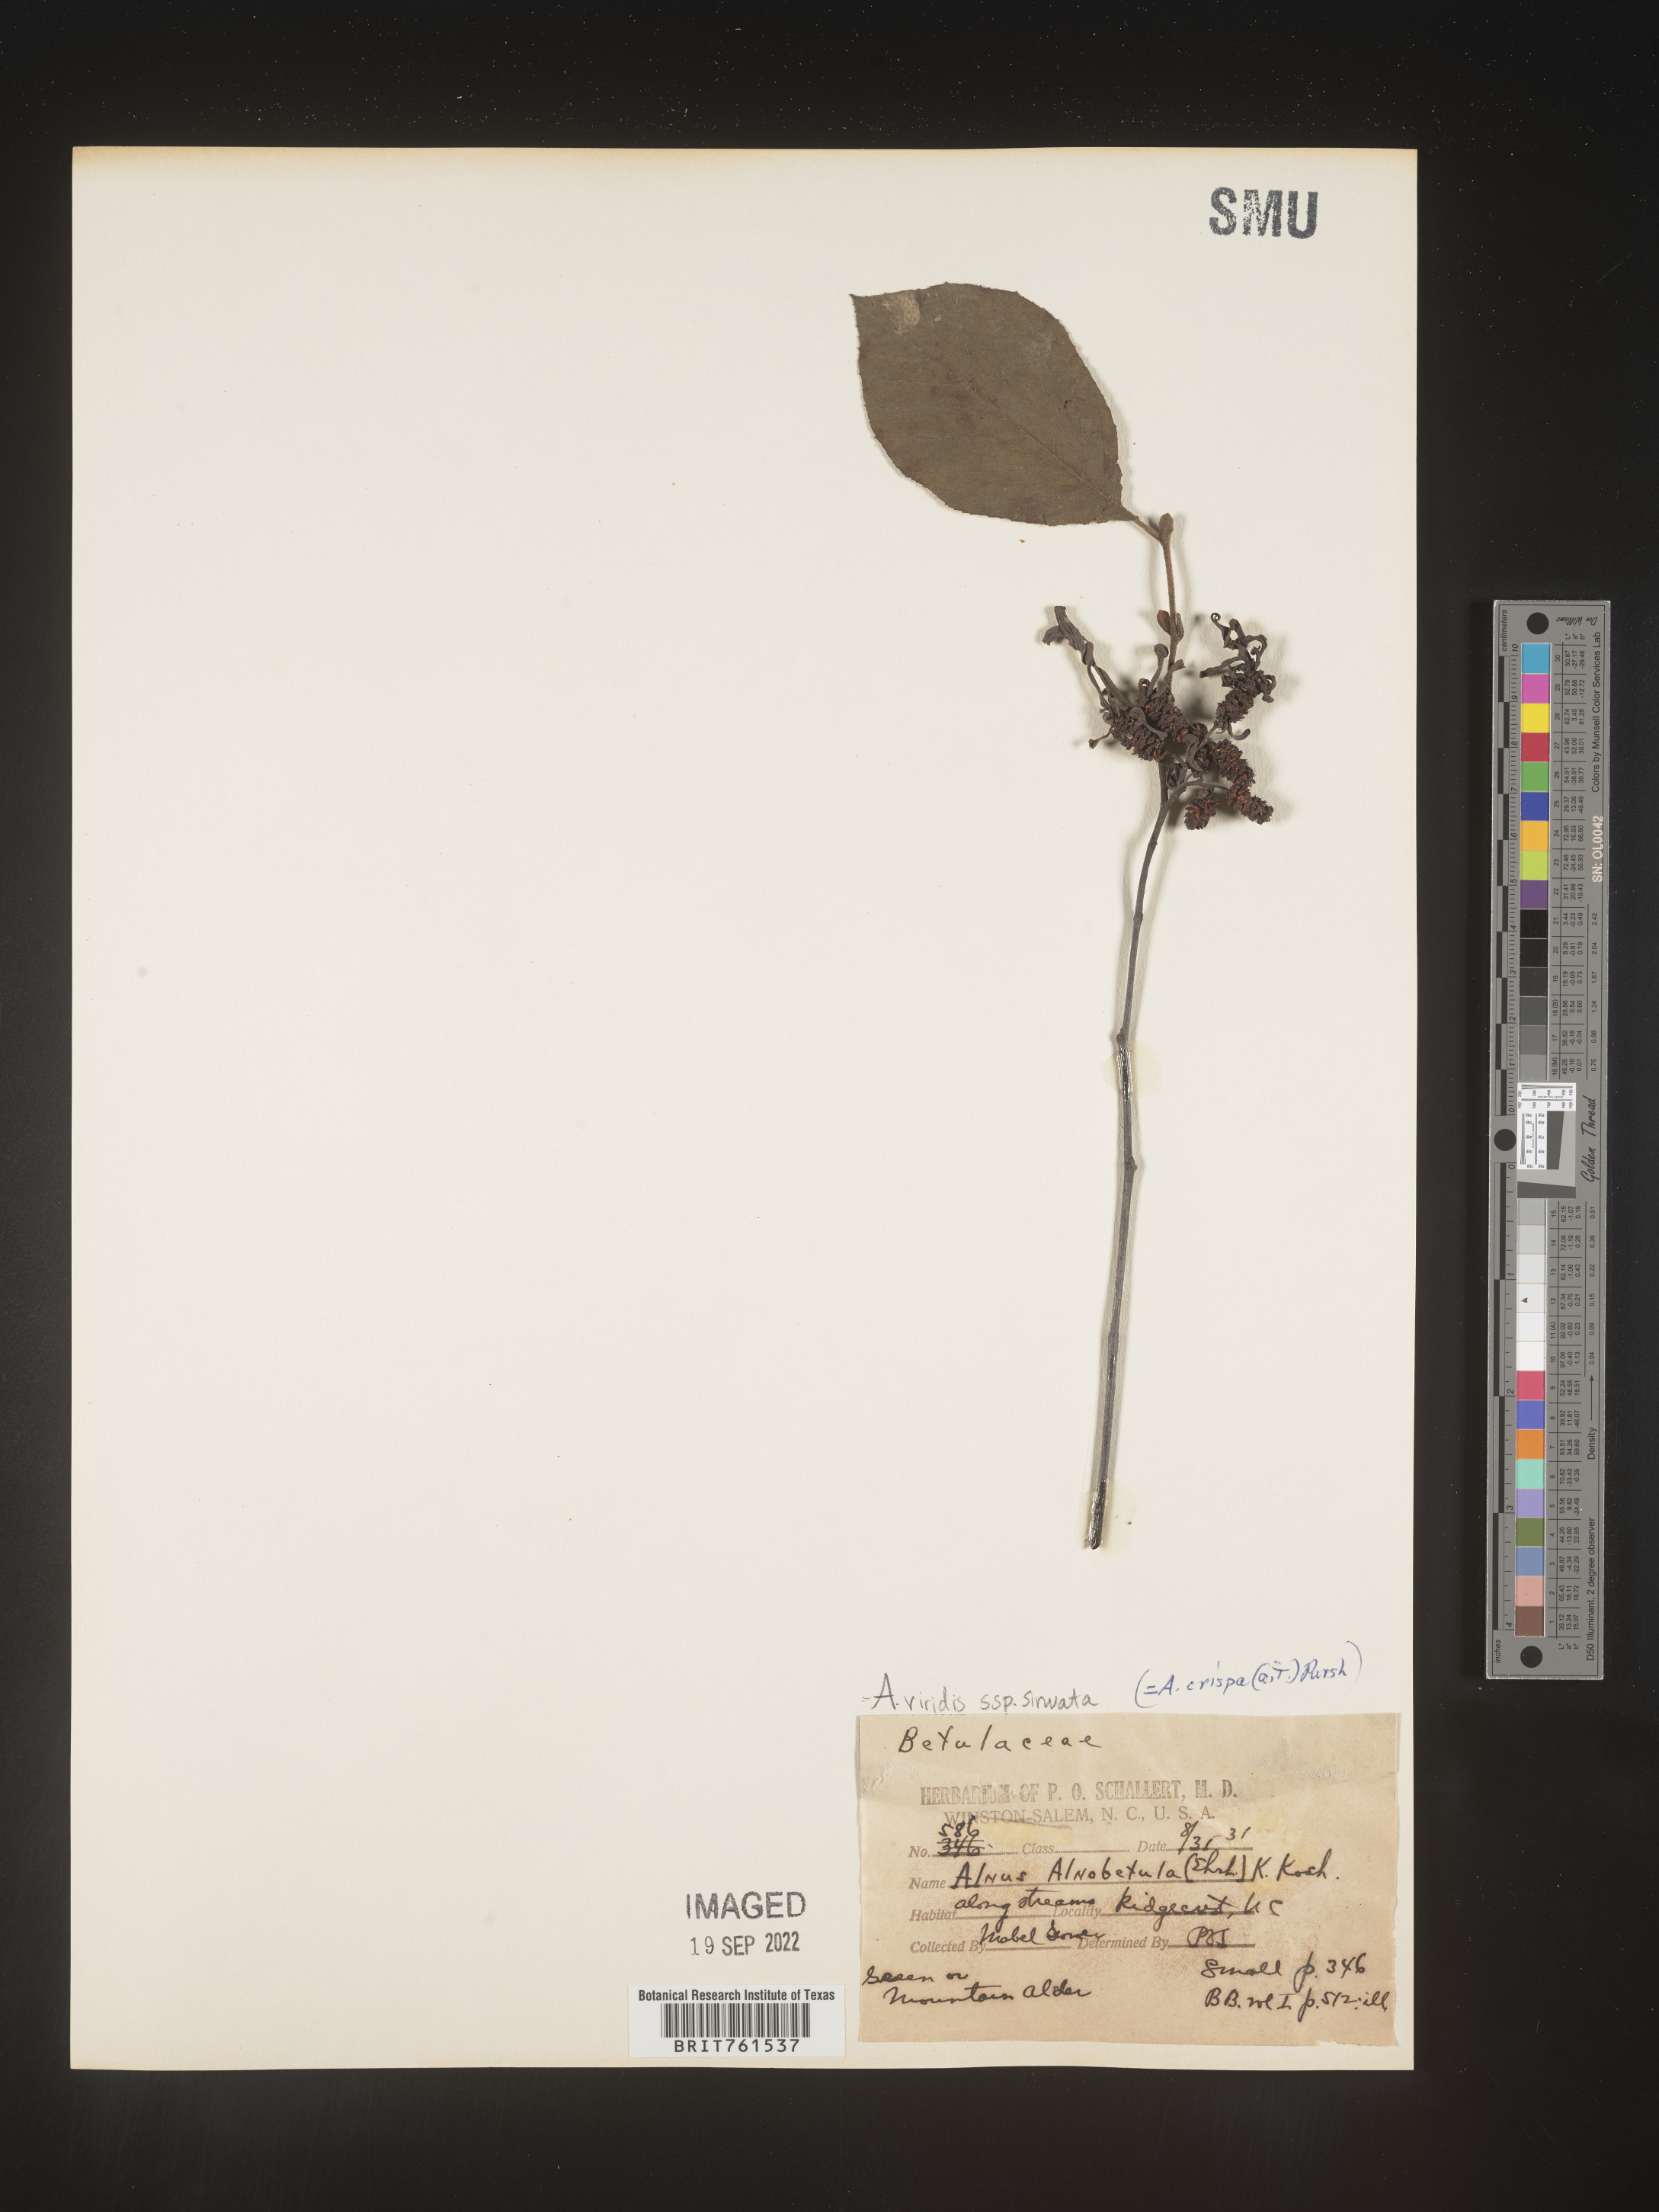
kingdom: Plantae
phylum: Tracheophyta
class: Magnoliopsida
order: Fagales
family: Betulaceae
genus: Alnus
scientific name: Alnus alnobetula
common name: Green alder
